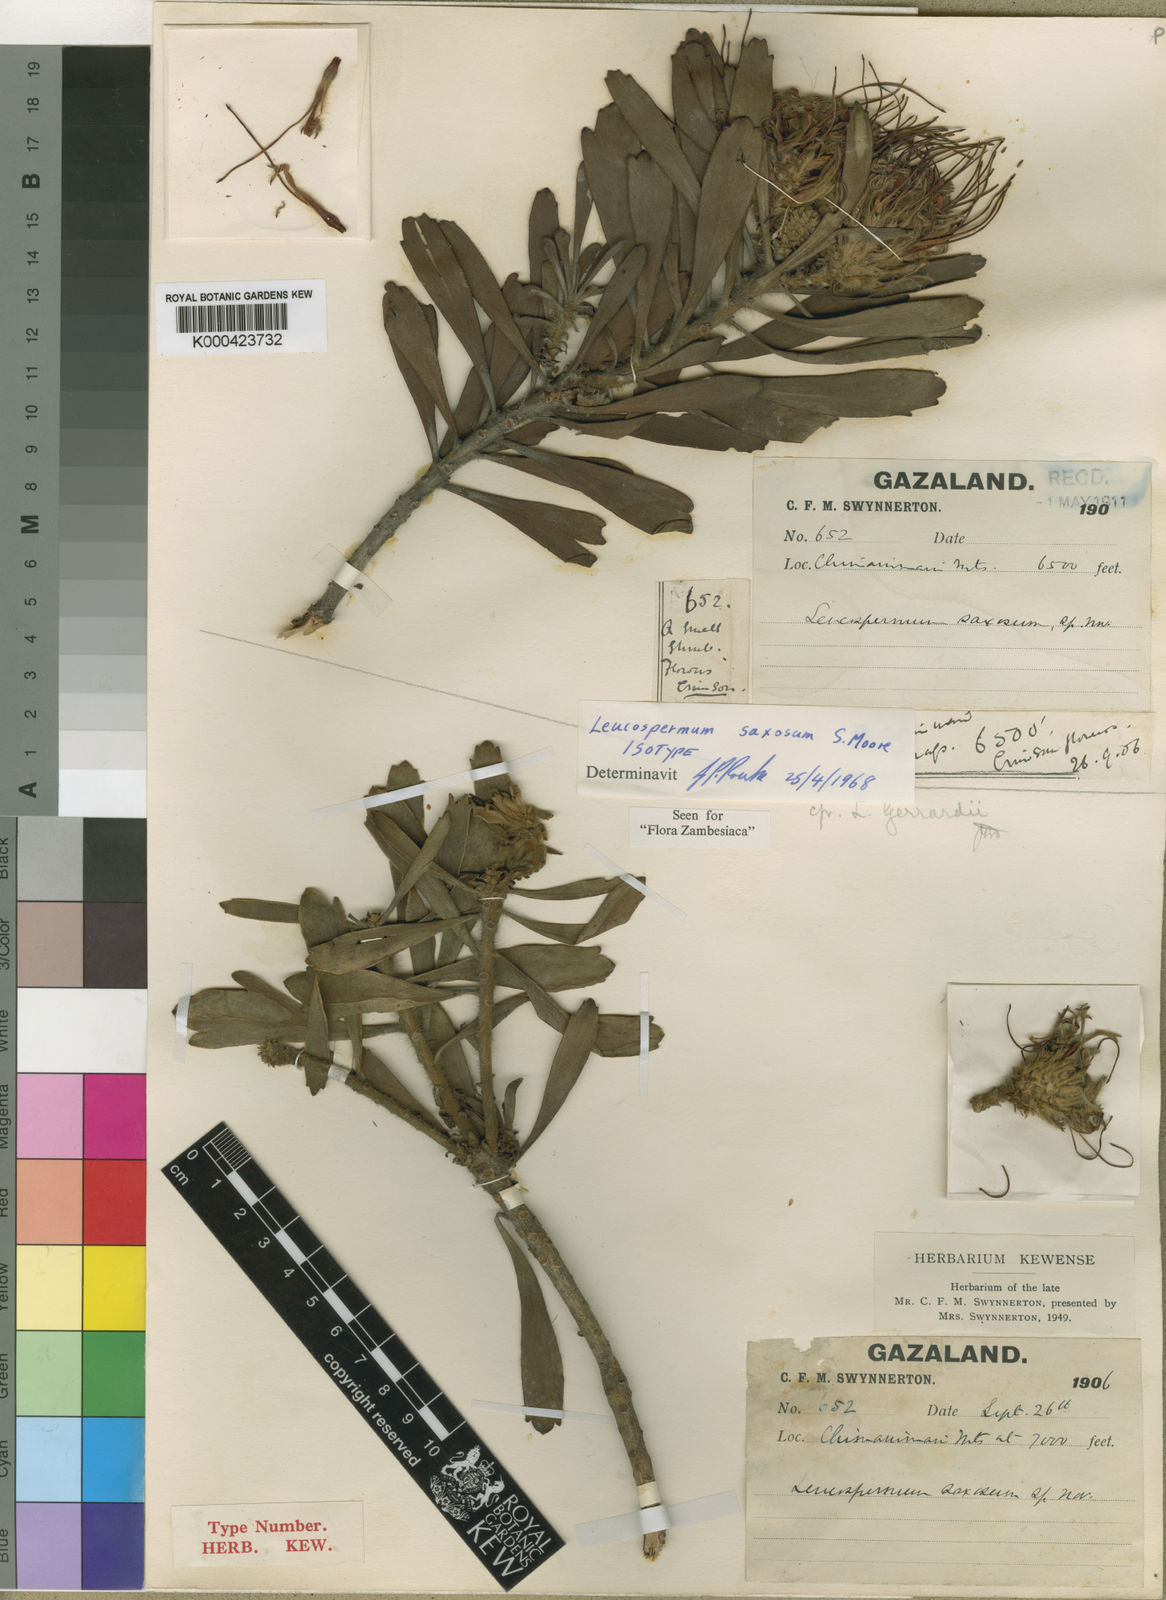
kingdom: Plantae
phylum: Tracheophyta
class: Magnoliopsida
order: Proteales
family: Proteaceae
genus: Leucospermum
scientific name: Leucospermum saxosum
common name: Chimanimani pincushion
